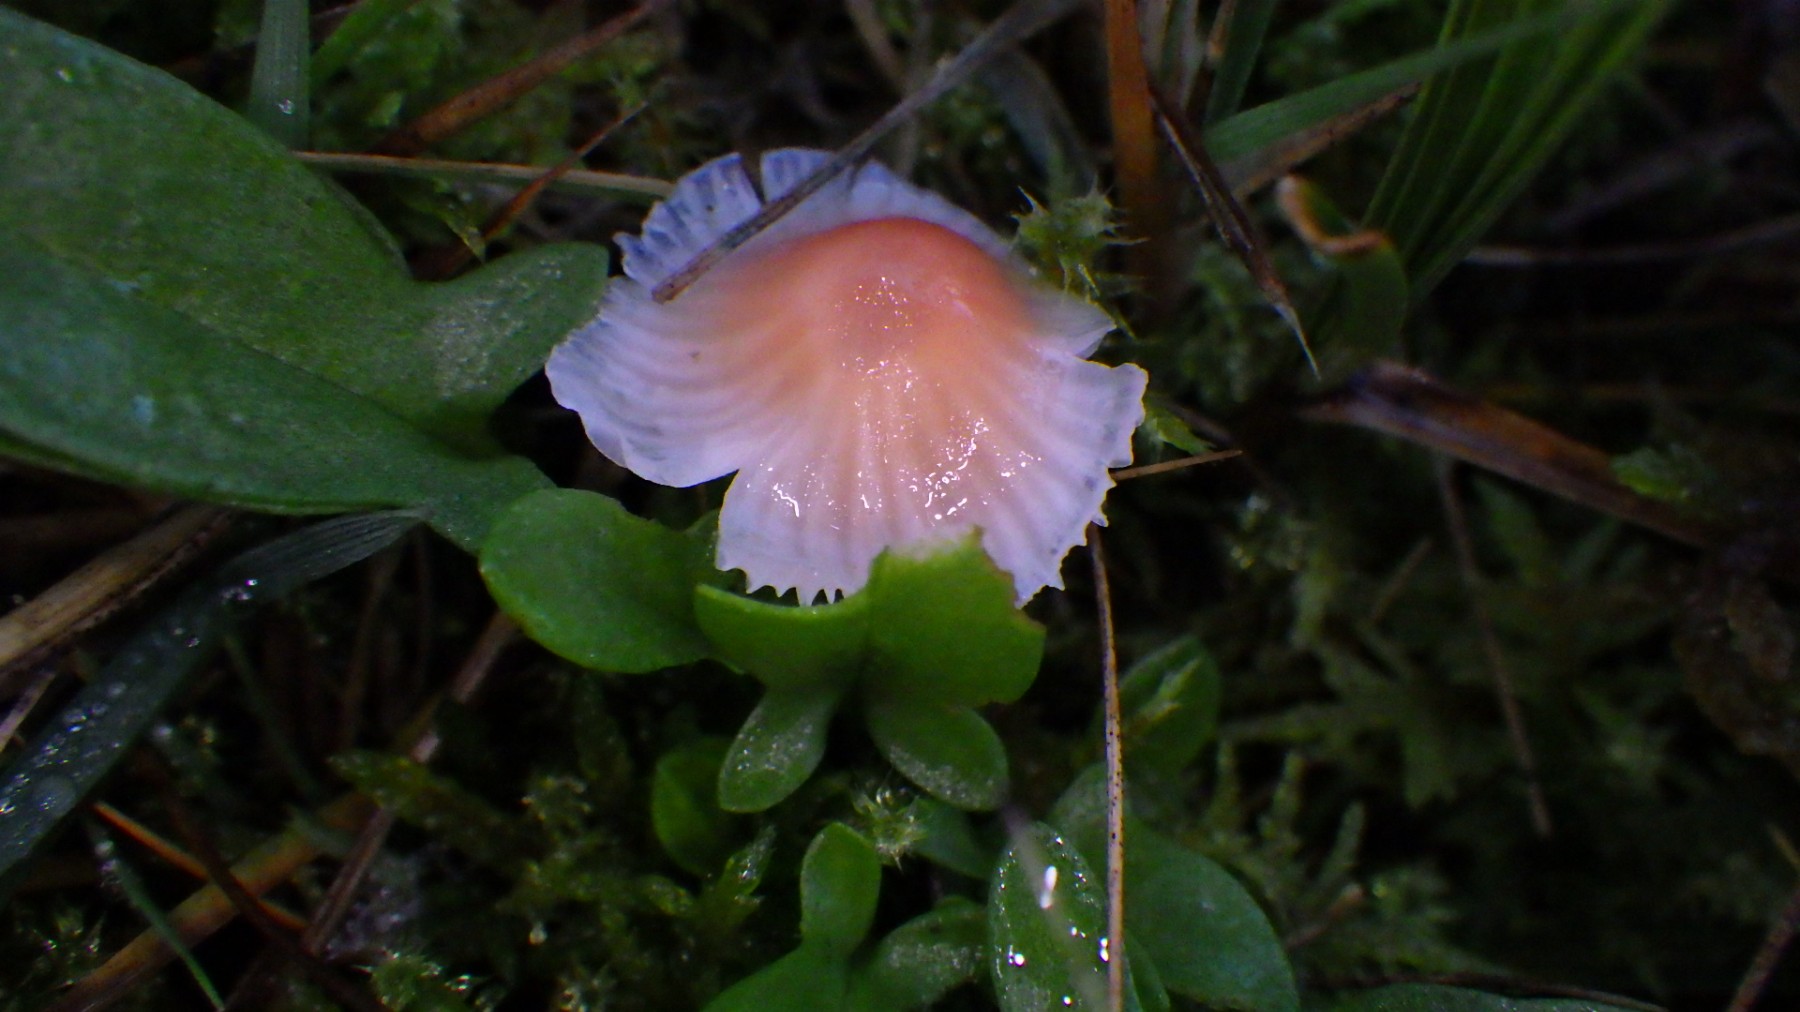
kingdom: Fungi
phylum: Basidiomycota
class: Agaricomycetes
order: Agaricales
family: Mycenaceae
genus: Atheniella
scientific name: Atheniella adonis
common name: rønnerød huesvamp
